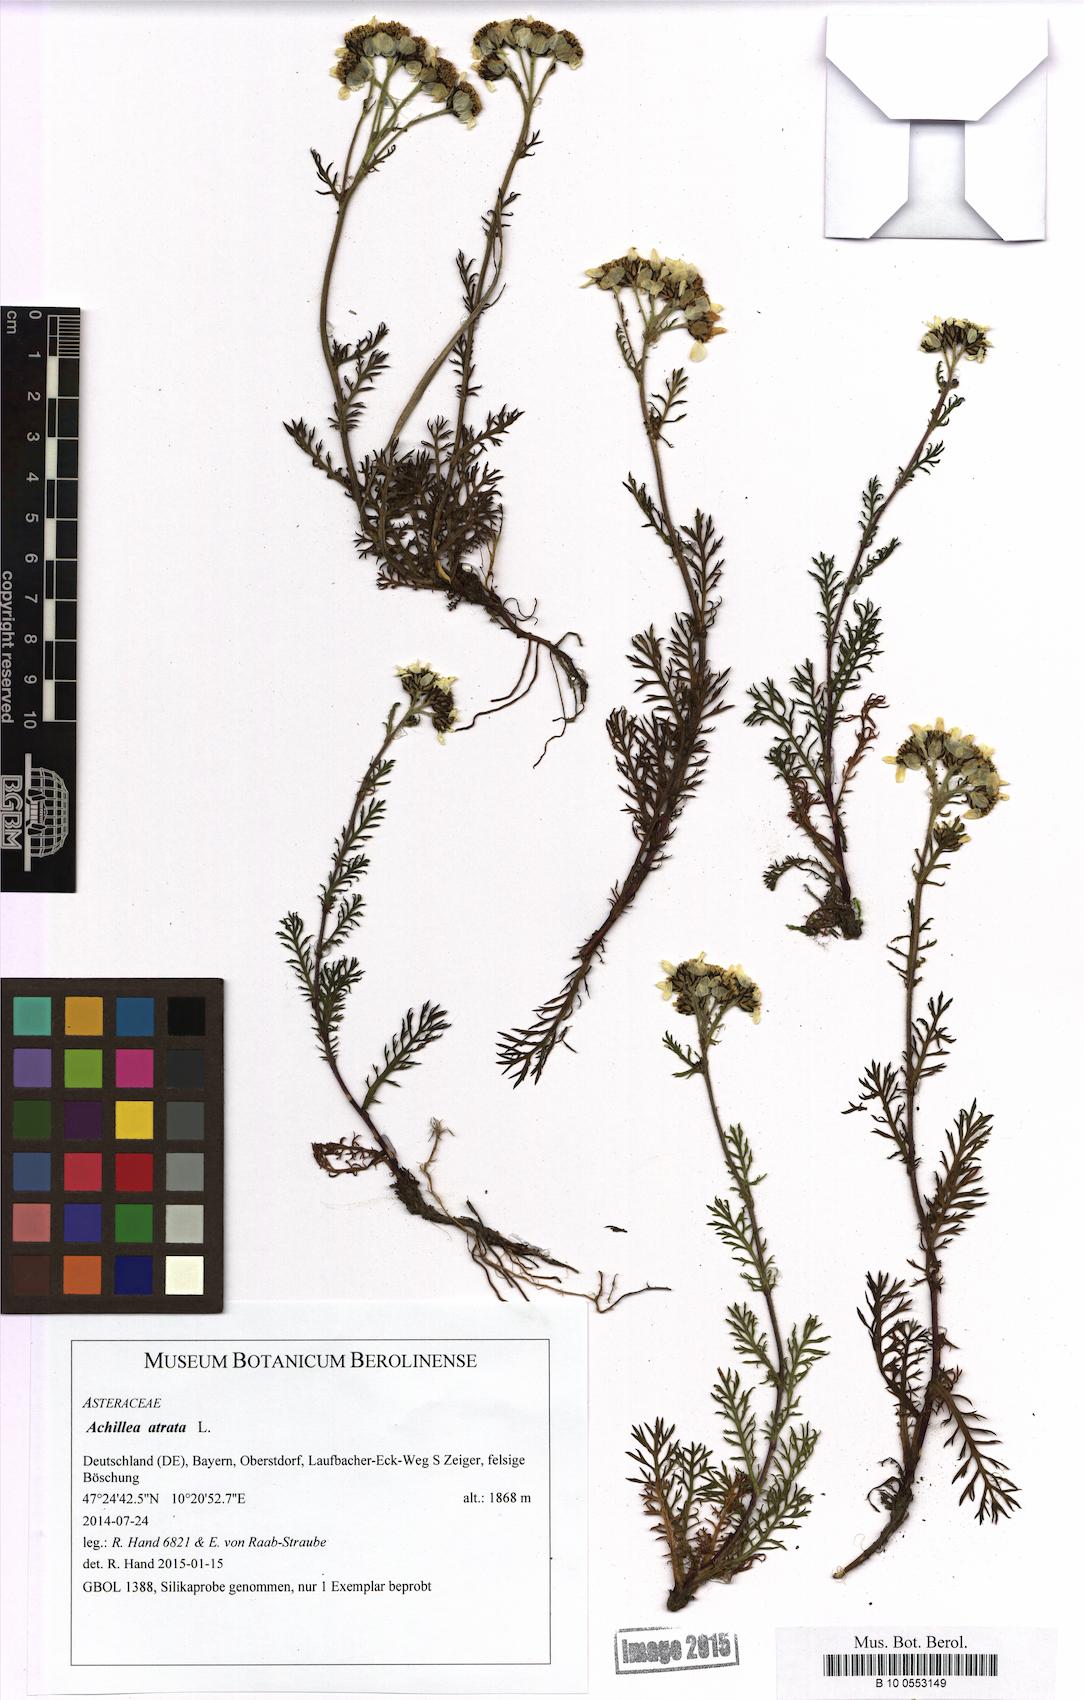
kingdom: Plantae
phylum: Tracheophyta
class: Magnoliopsida
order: Asterales
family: Asteraceae
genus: Achillea
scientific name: Achillea atrata
